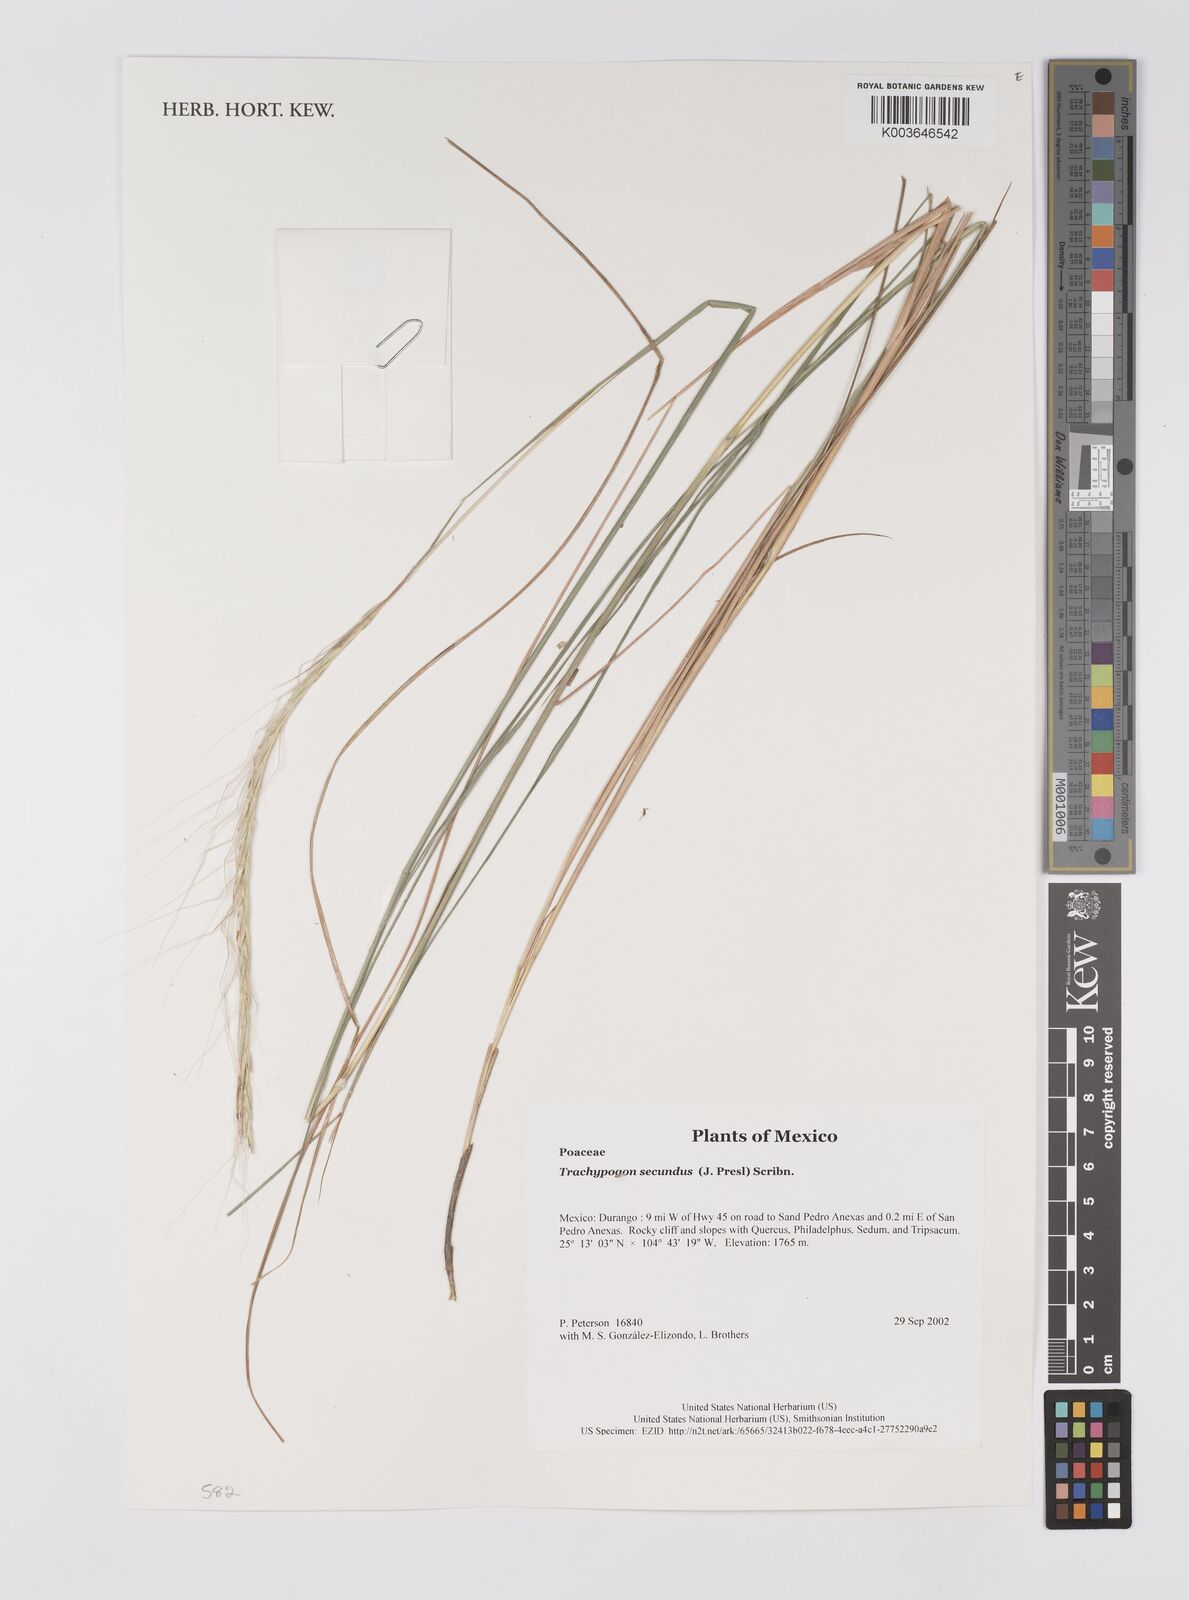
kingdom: Plantae
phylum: Tracheophyta
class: Liliopsida
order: Poales
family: Poaceae
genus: Trachypogon
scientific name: Trachypogon spicatus
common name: Crinkle-awn
